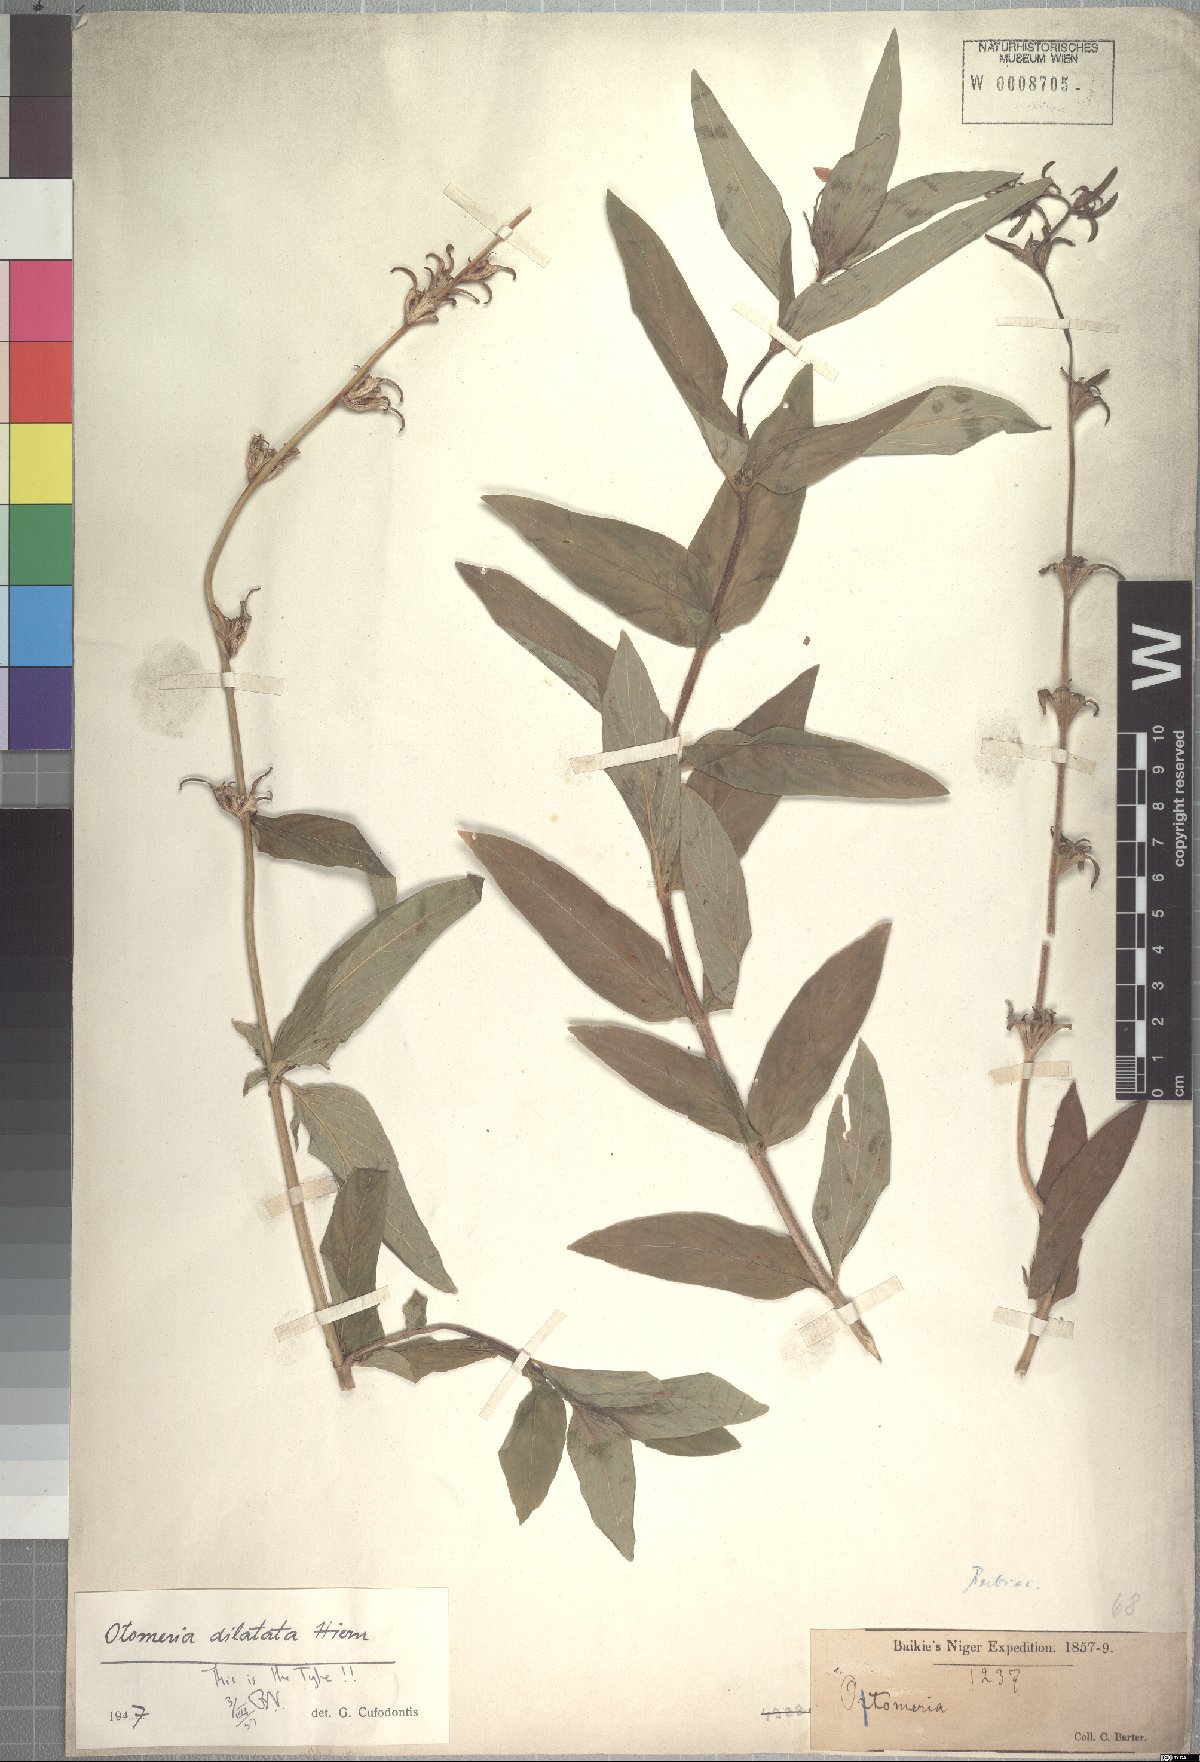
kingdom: Plantae
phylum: Tracheophyta
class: Magnoliopsida
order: Gentianales
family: Rubiaceae
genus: Otomeria
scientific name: Otomeria elatior
